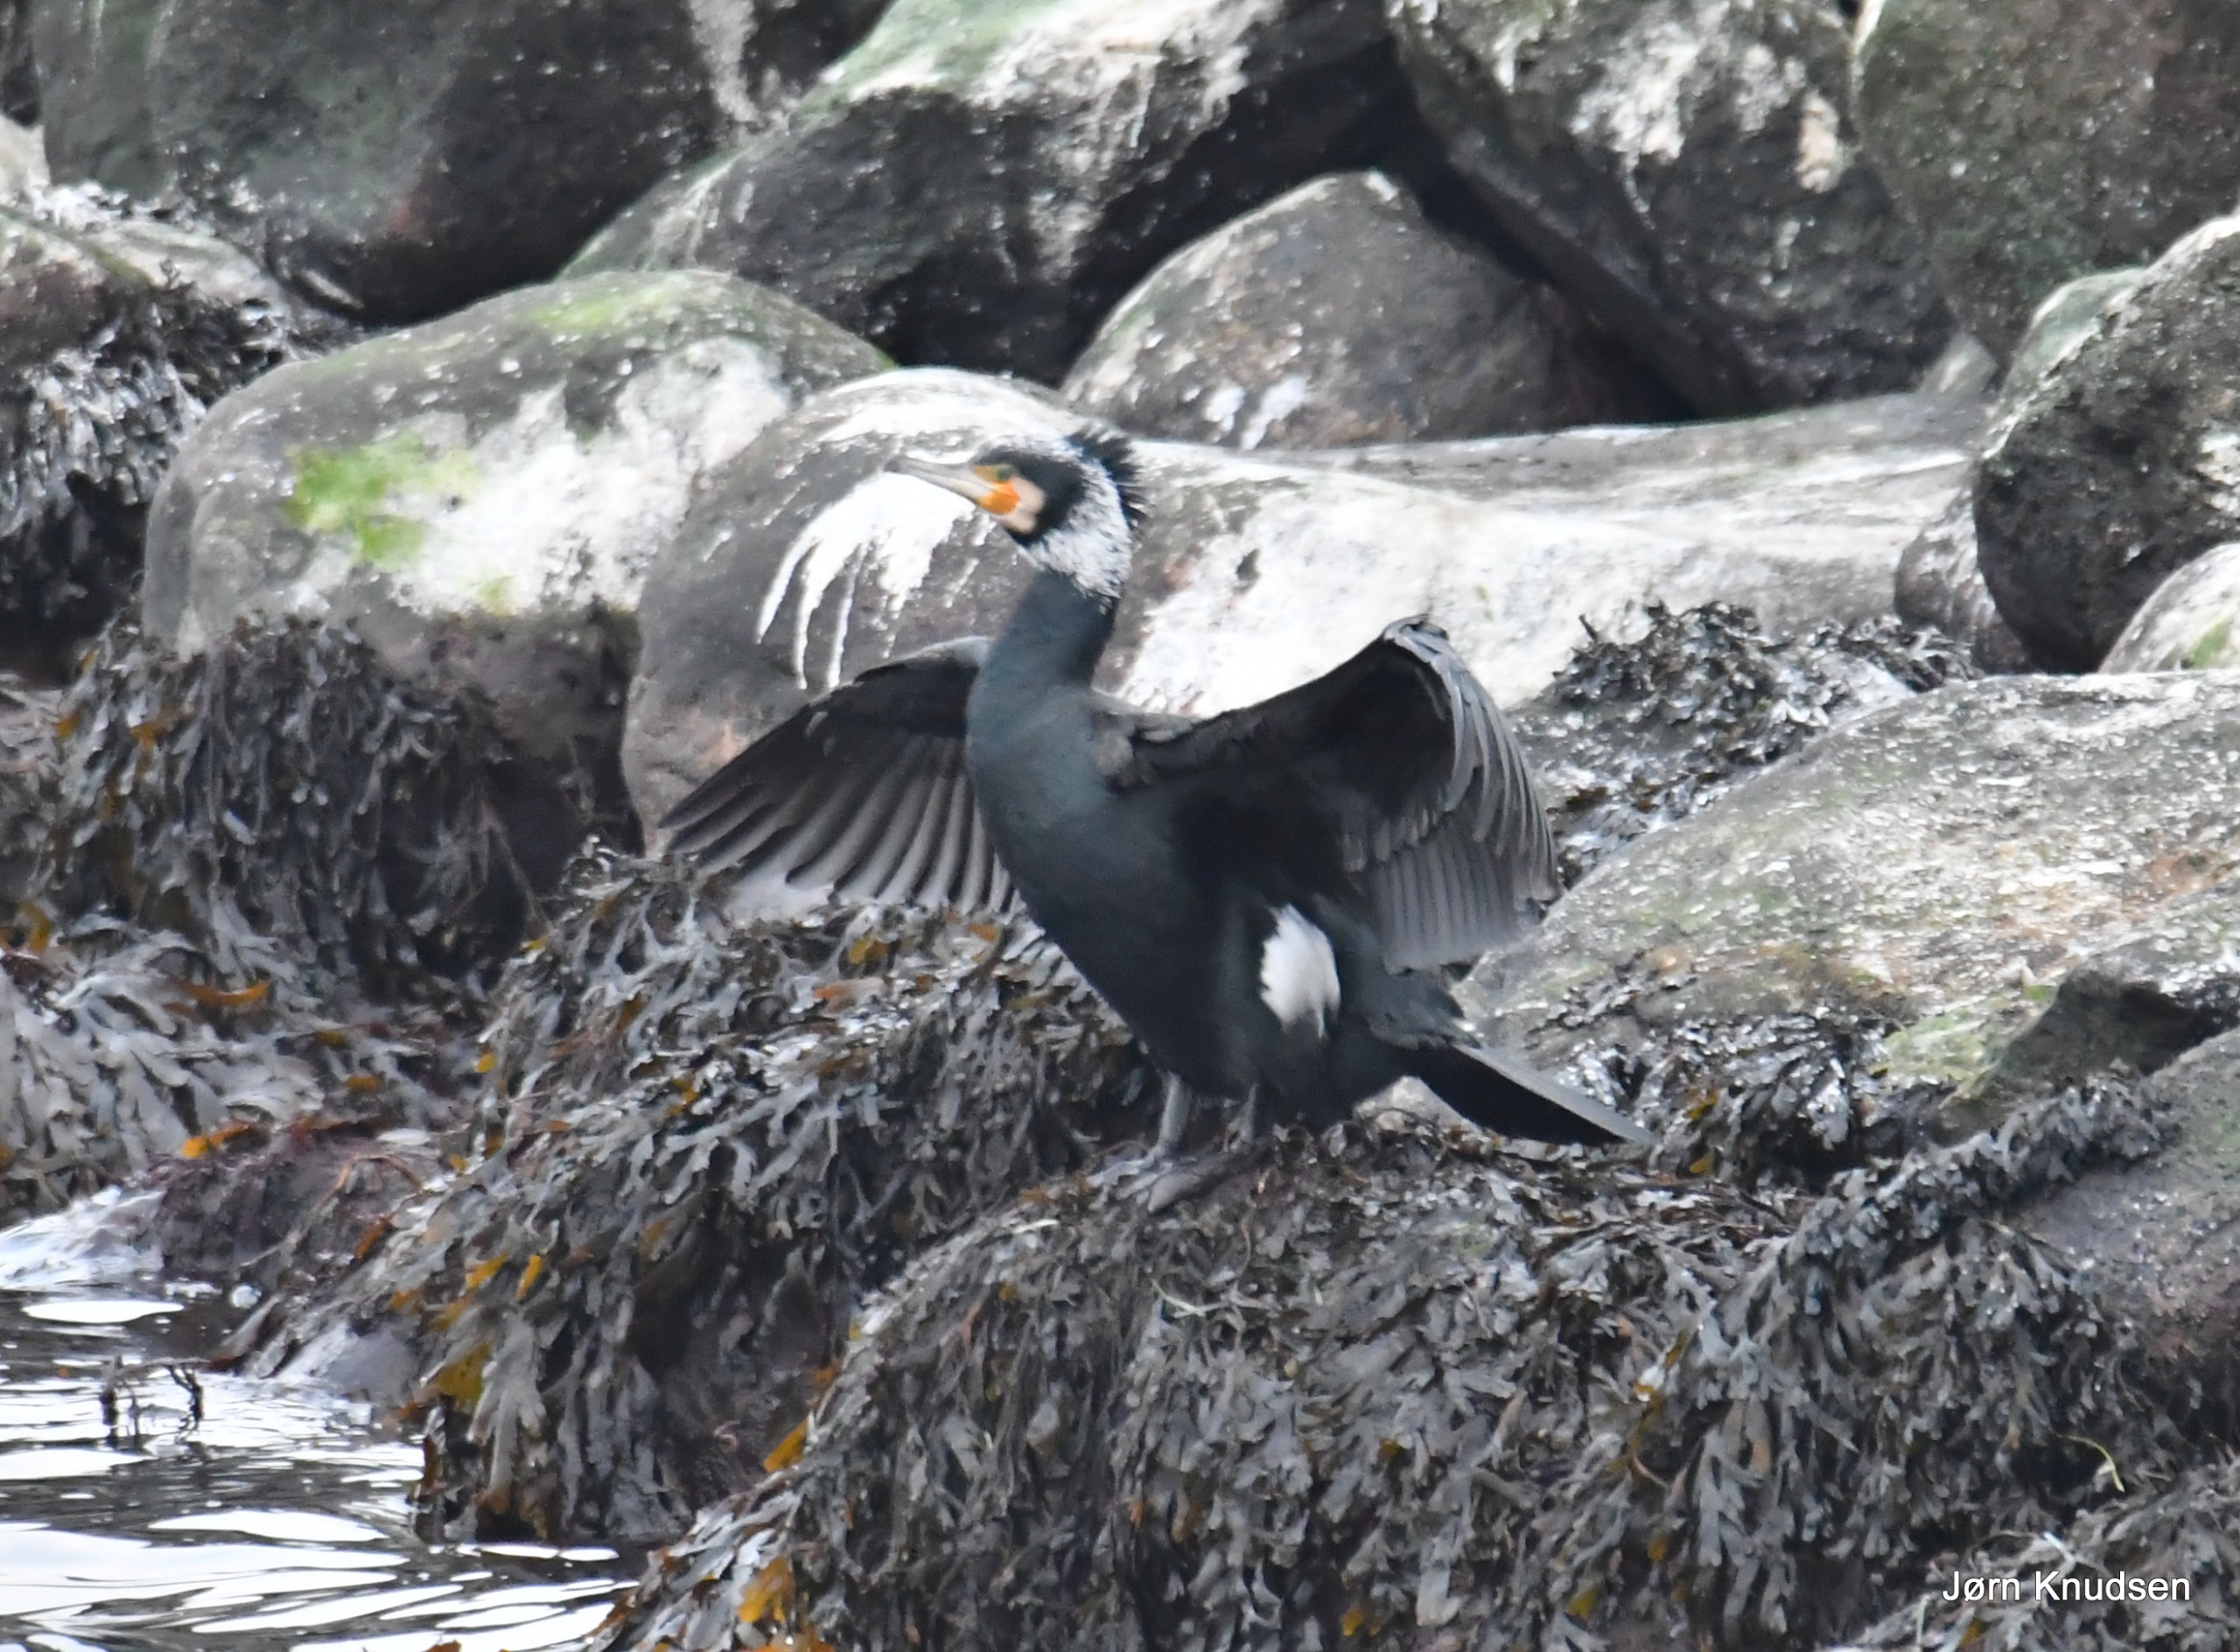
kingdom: Animalia
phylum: Chordata
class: Aves
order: Suliformes
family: Phalacrocoracidae
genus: Phalacrocorax
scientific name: Phalacrocorax carbo
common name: Mellemskarv
